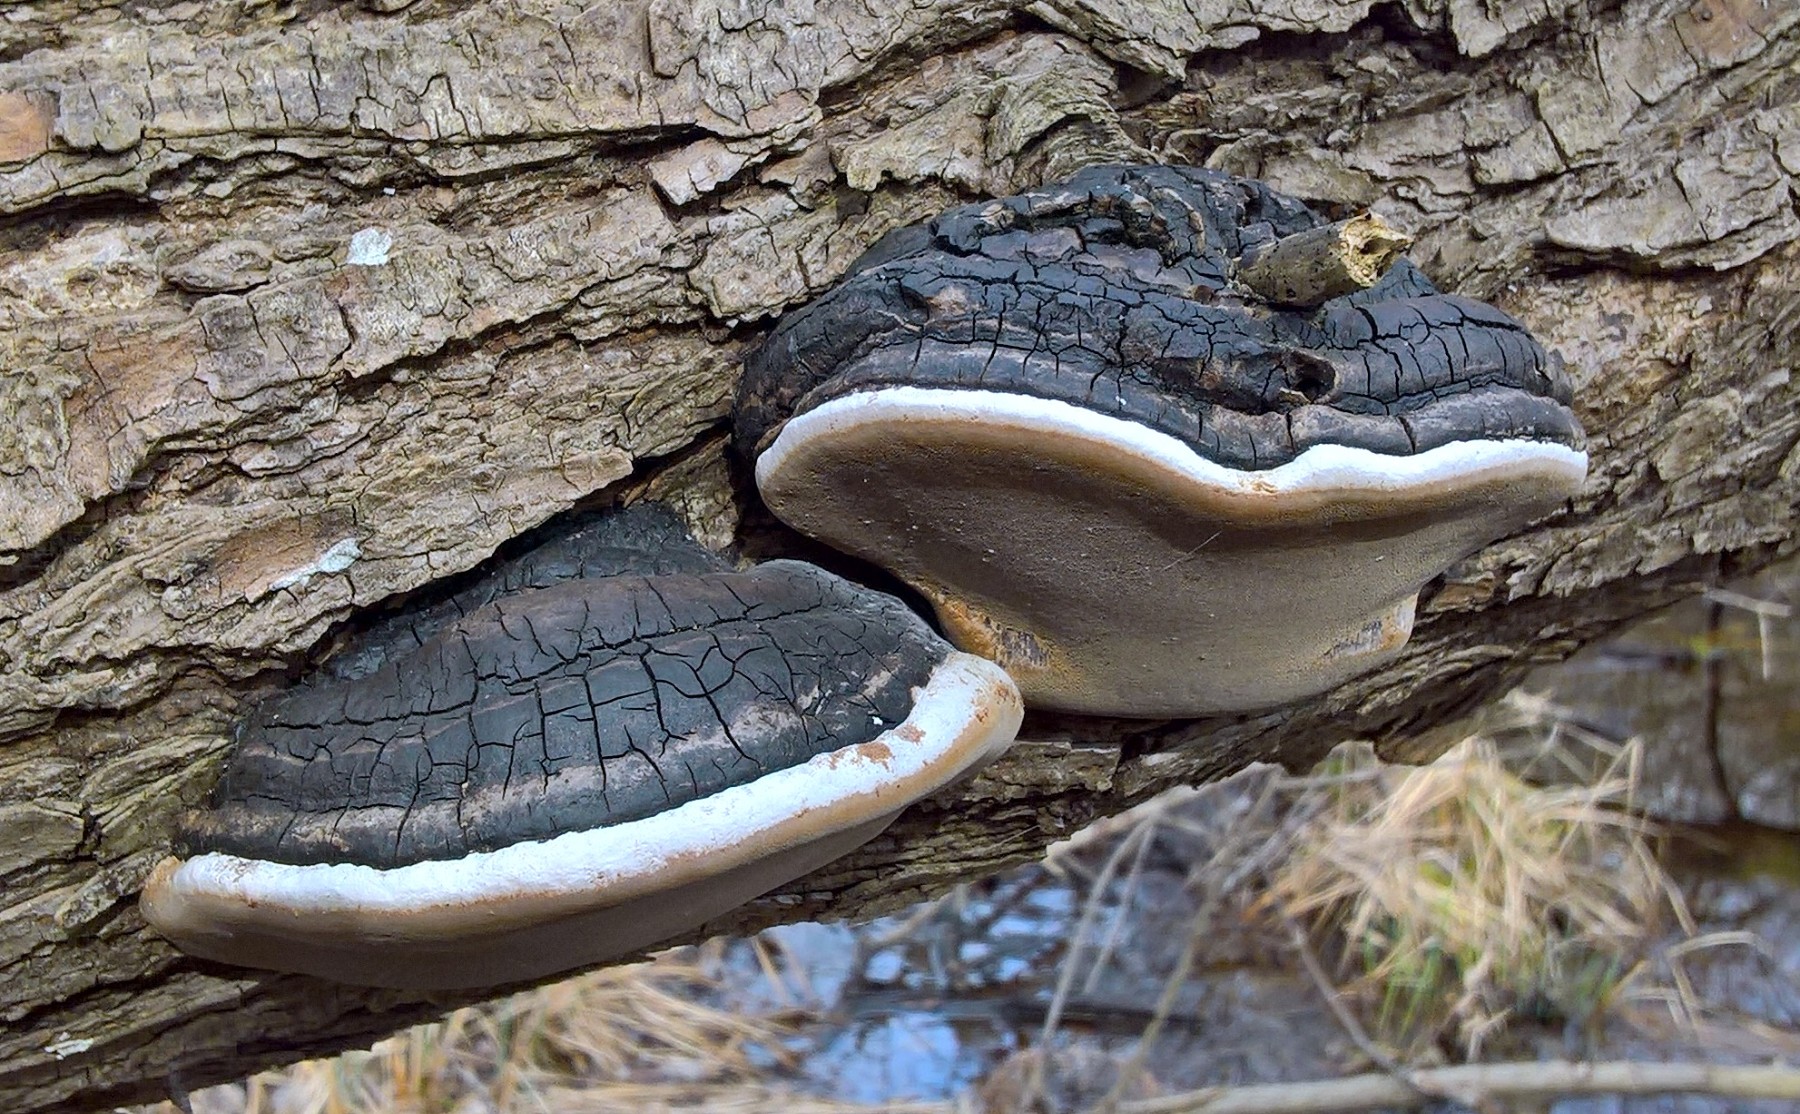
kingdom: Fungi
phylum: Basidiomycota
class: Agaricomycetes
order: Hymenochaetales
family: Hymenochaetaceae
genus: Phellinus
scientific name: Phellinus igniarius
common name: almindelig ildporesvamp
